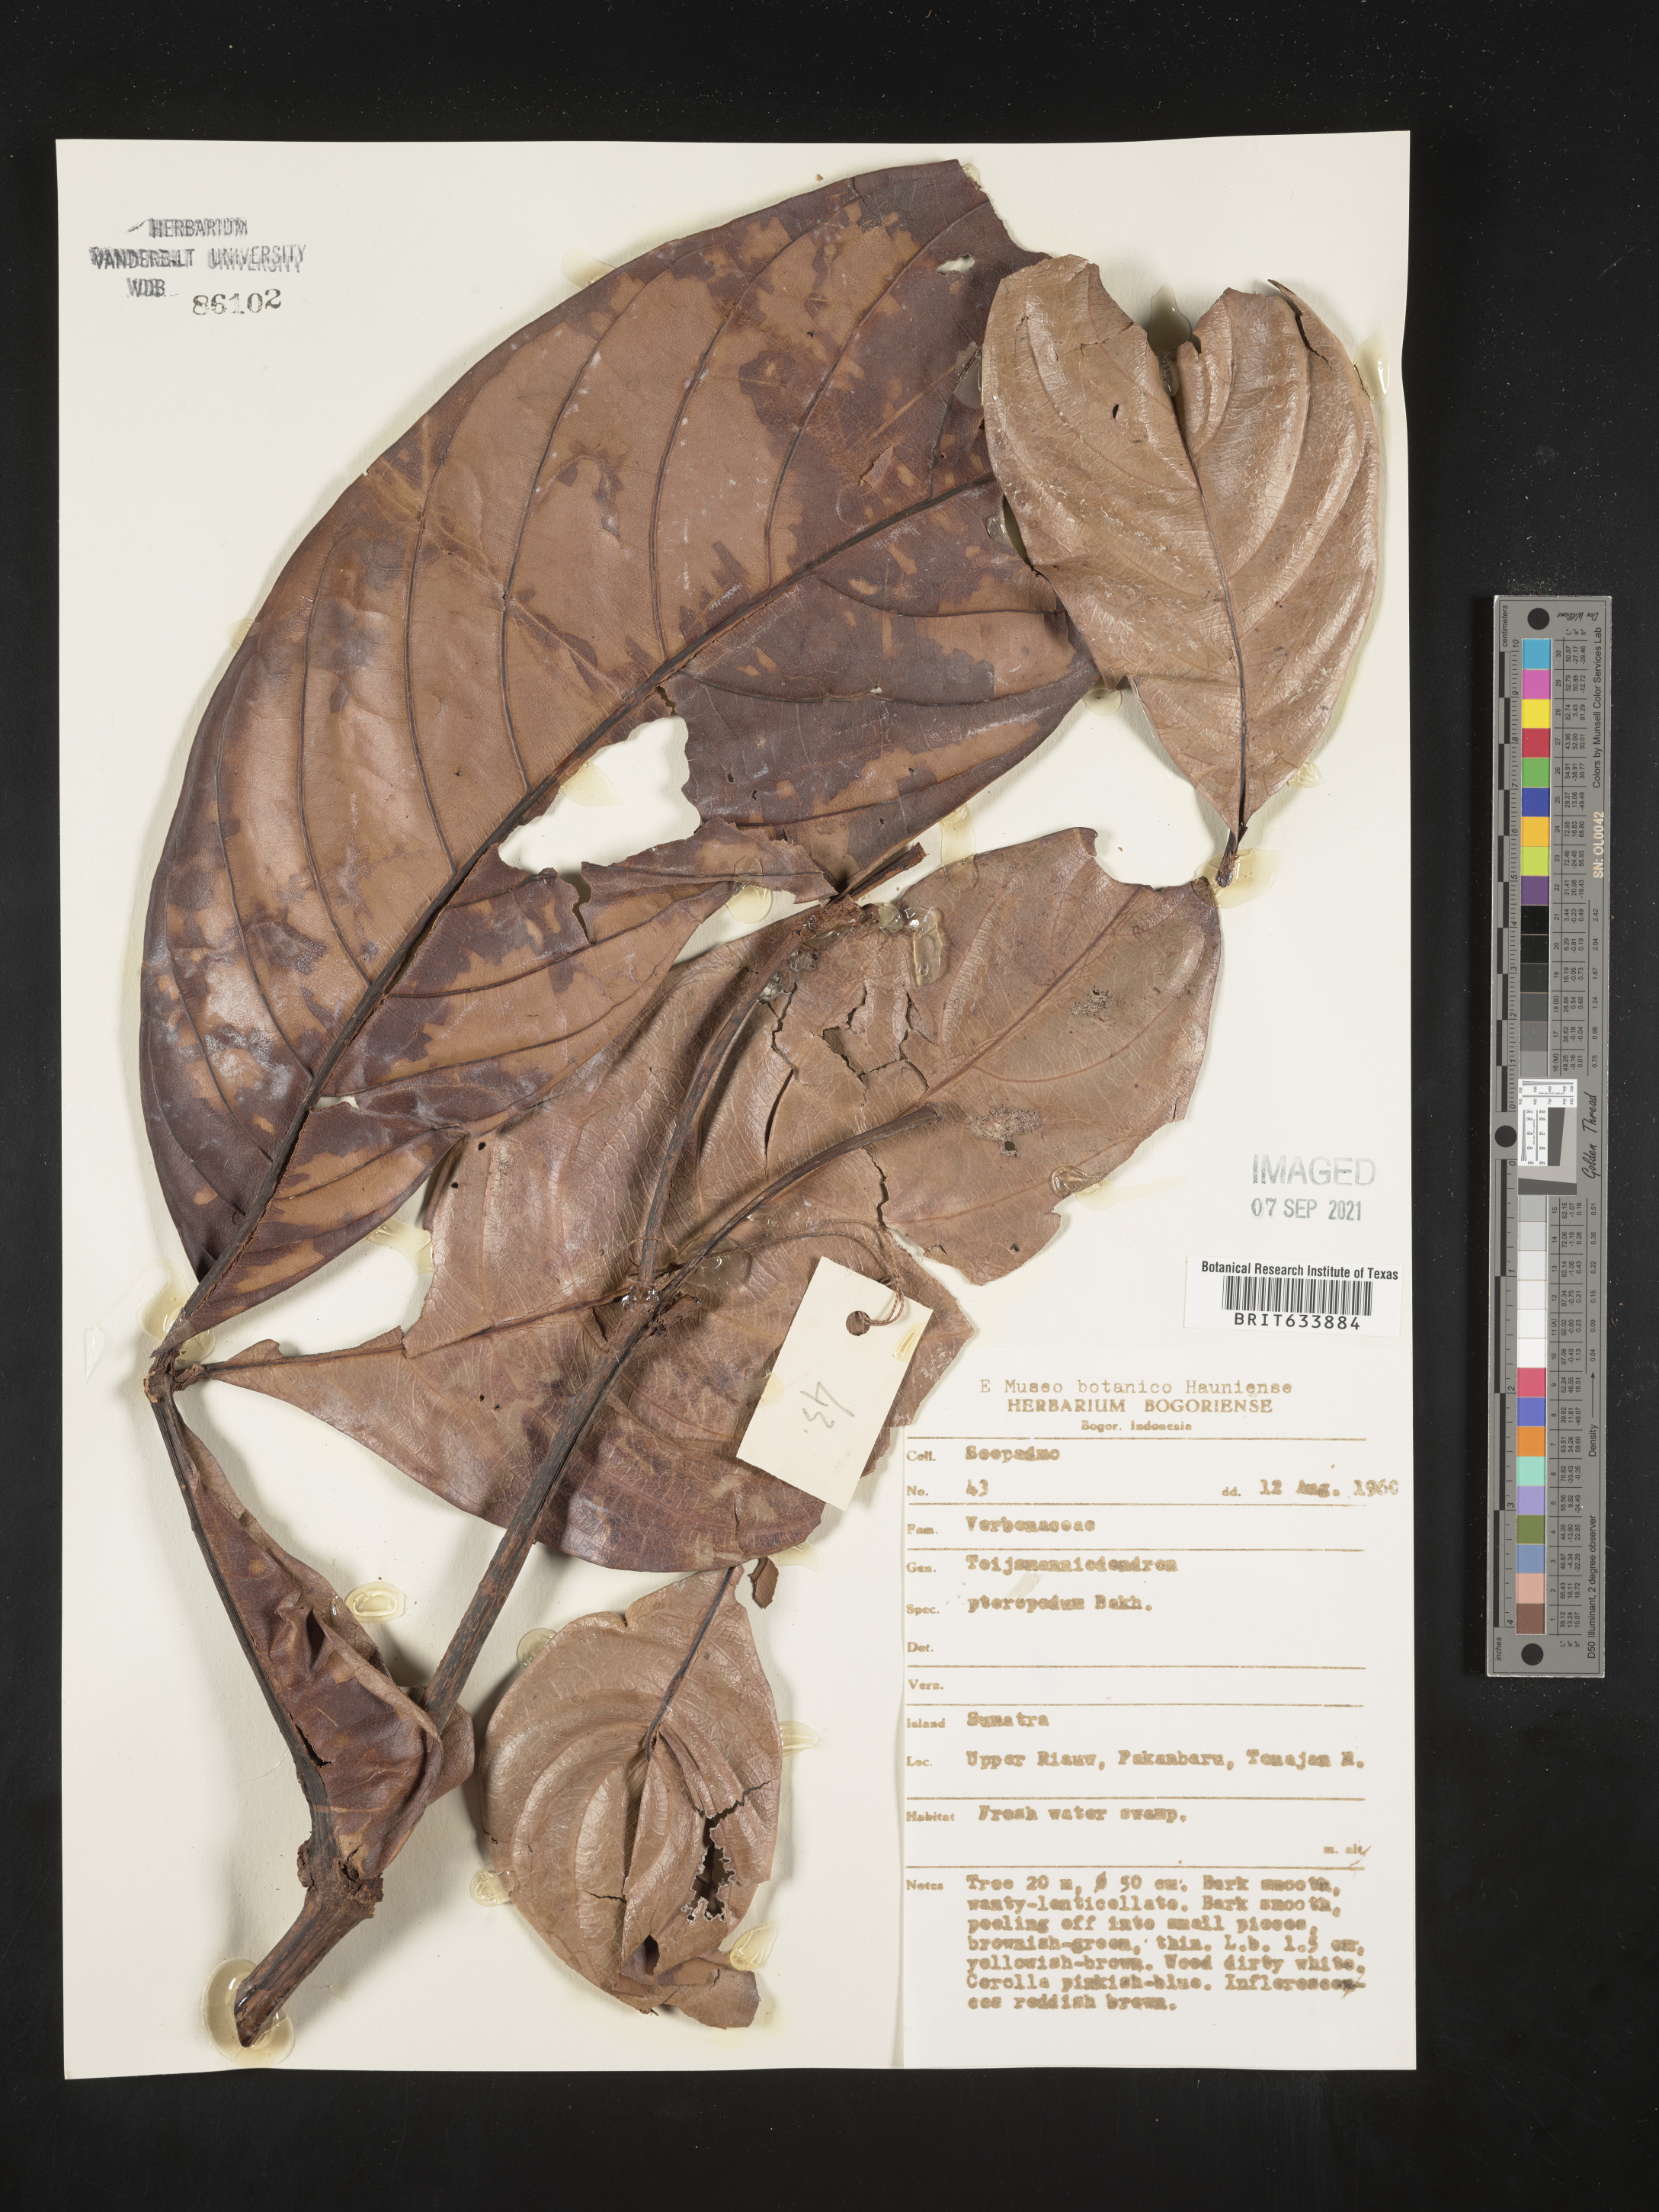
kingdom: Plantae
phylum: Tracheophyta
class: Magnoliopsida
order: Lamiales
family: Lamiaceae
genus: Teijsmanniodendron
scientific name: Teijsmanniodendron
